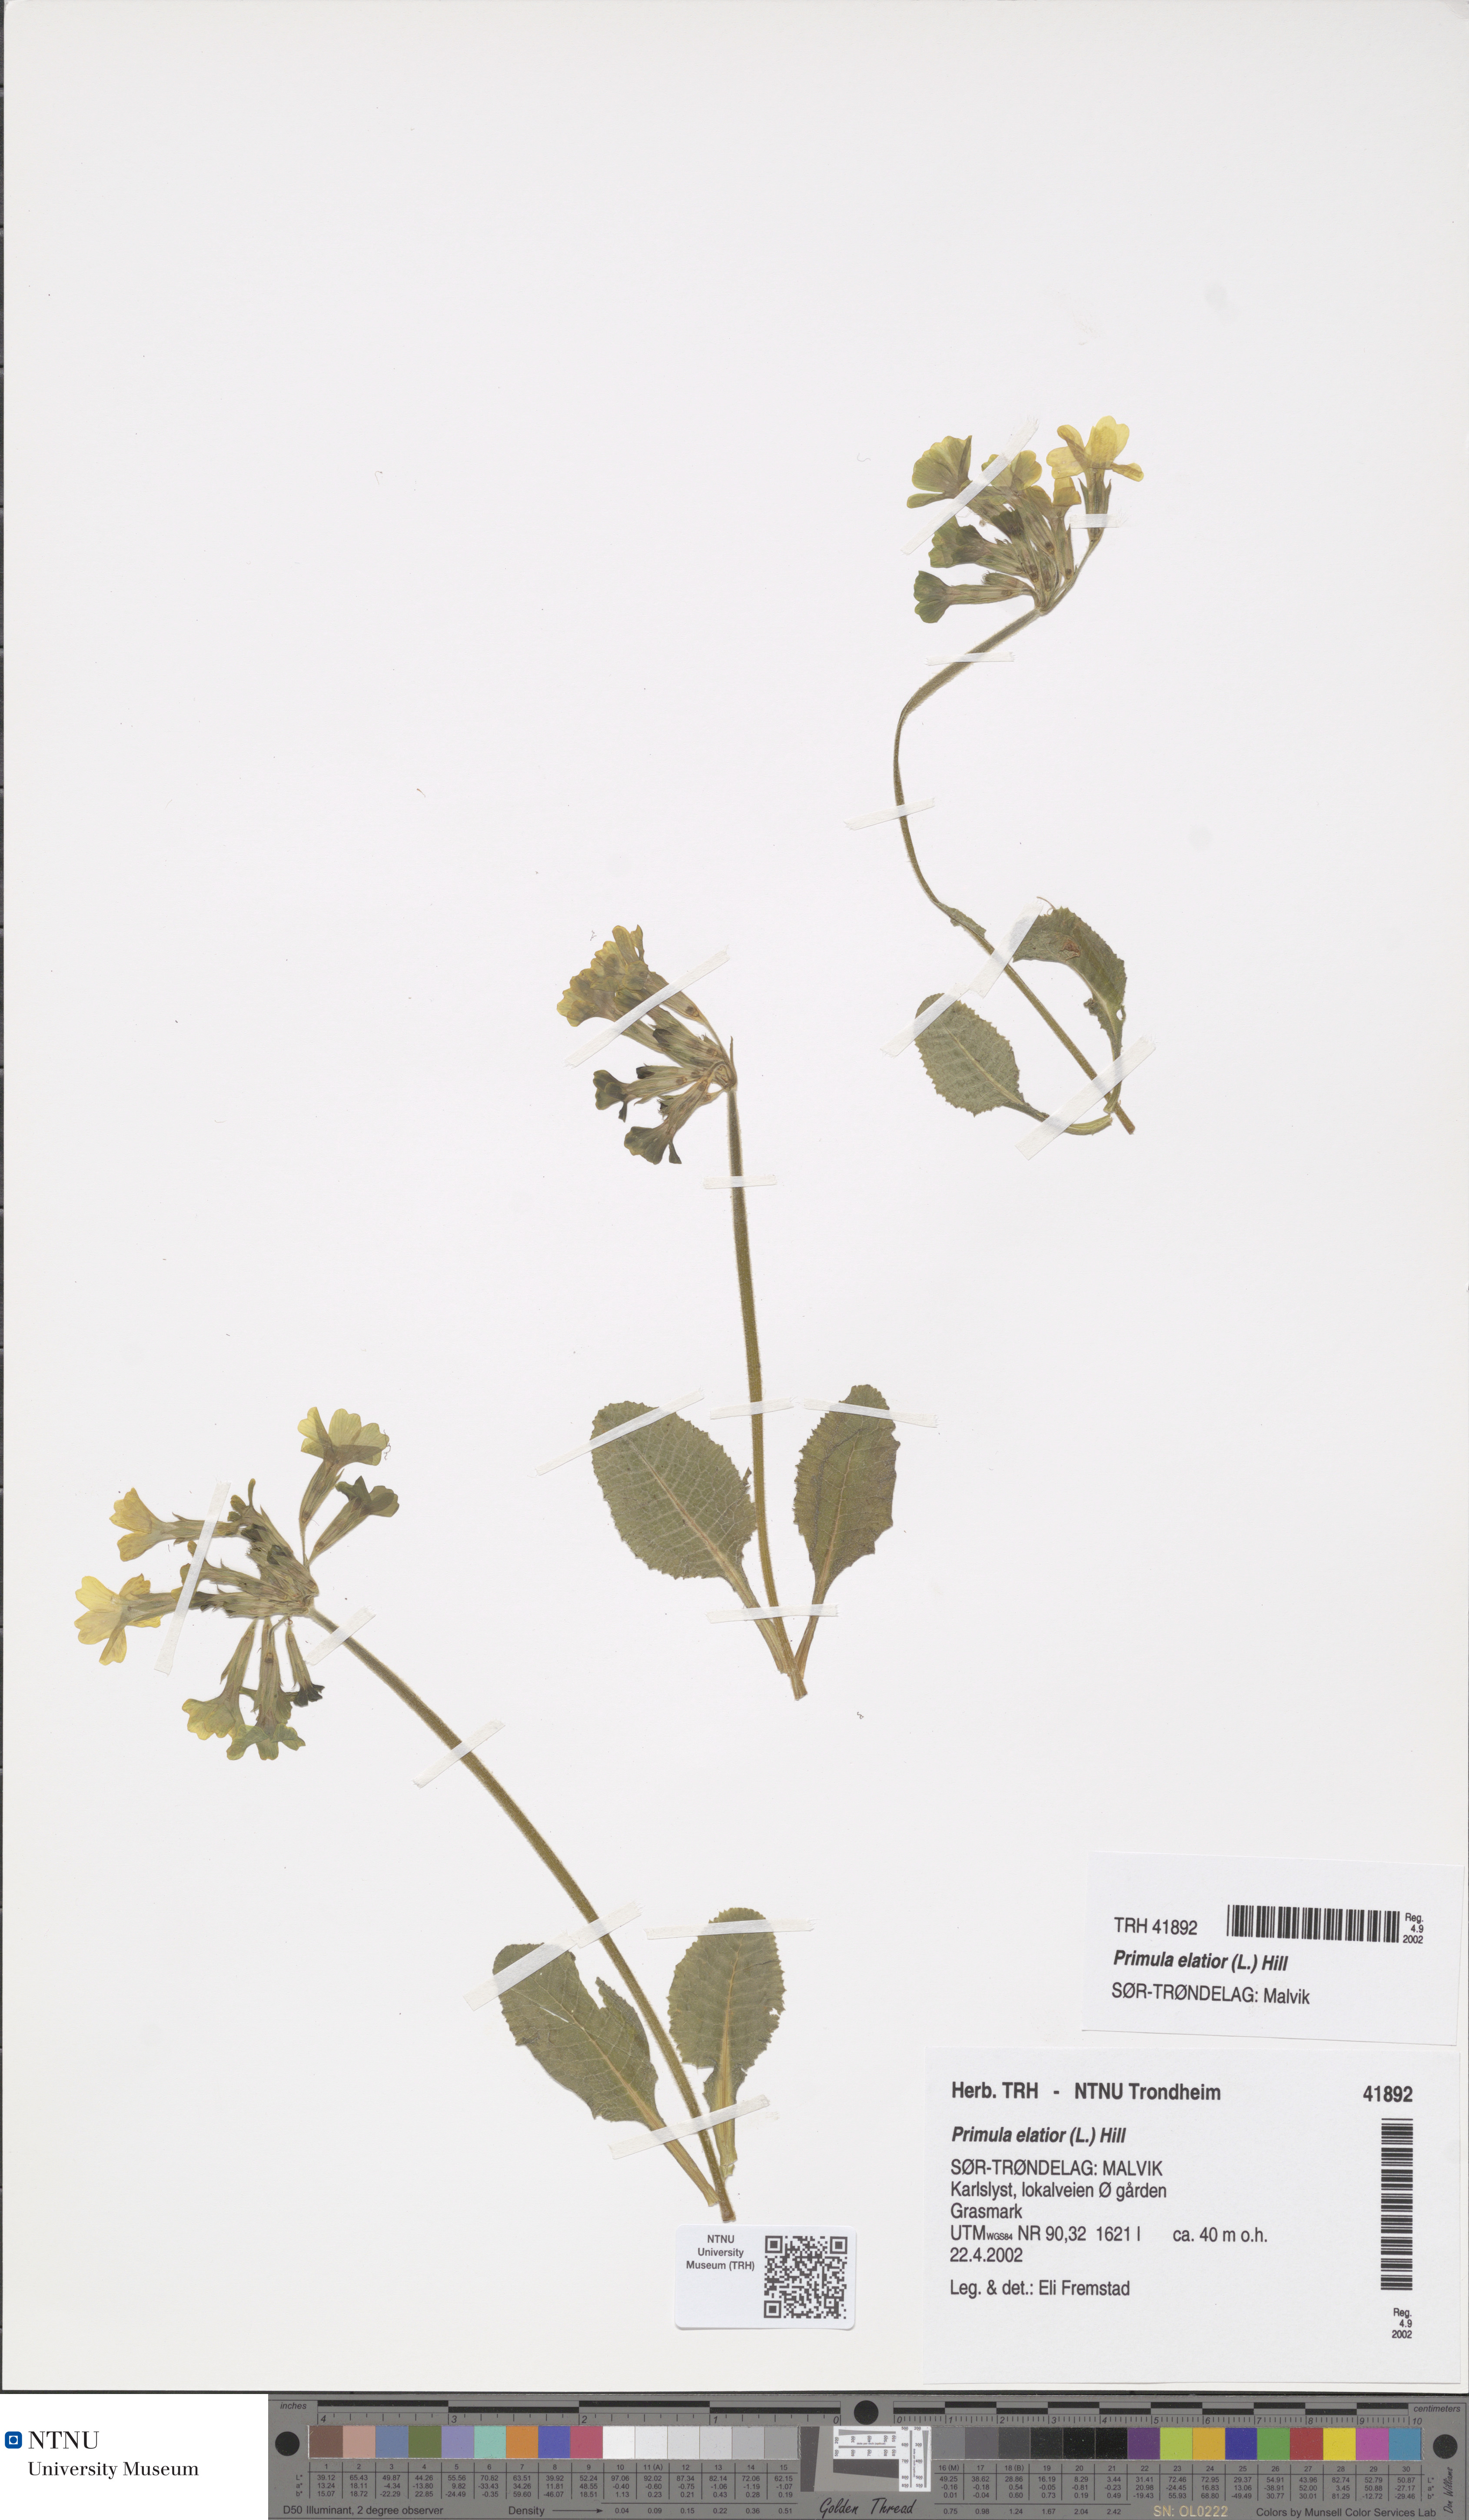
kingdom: Plantae
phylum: Tracheophyta
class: Magnoliopsida
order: Ericales
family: Primulaceae
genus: Primula
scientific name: Primula elatior
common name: Oxlip
